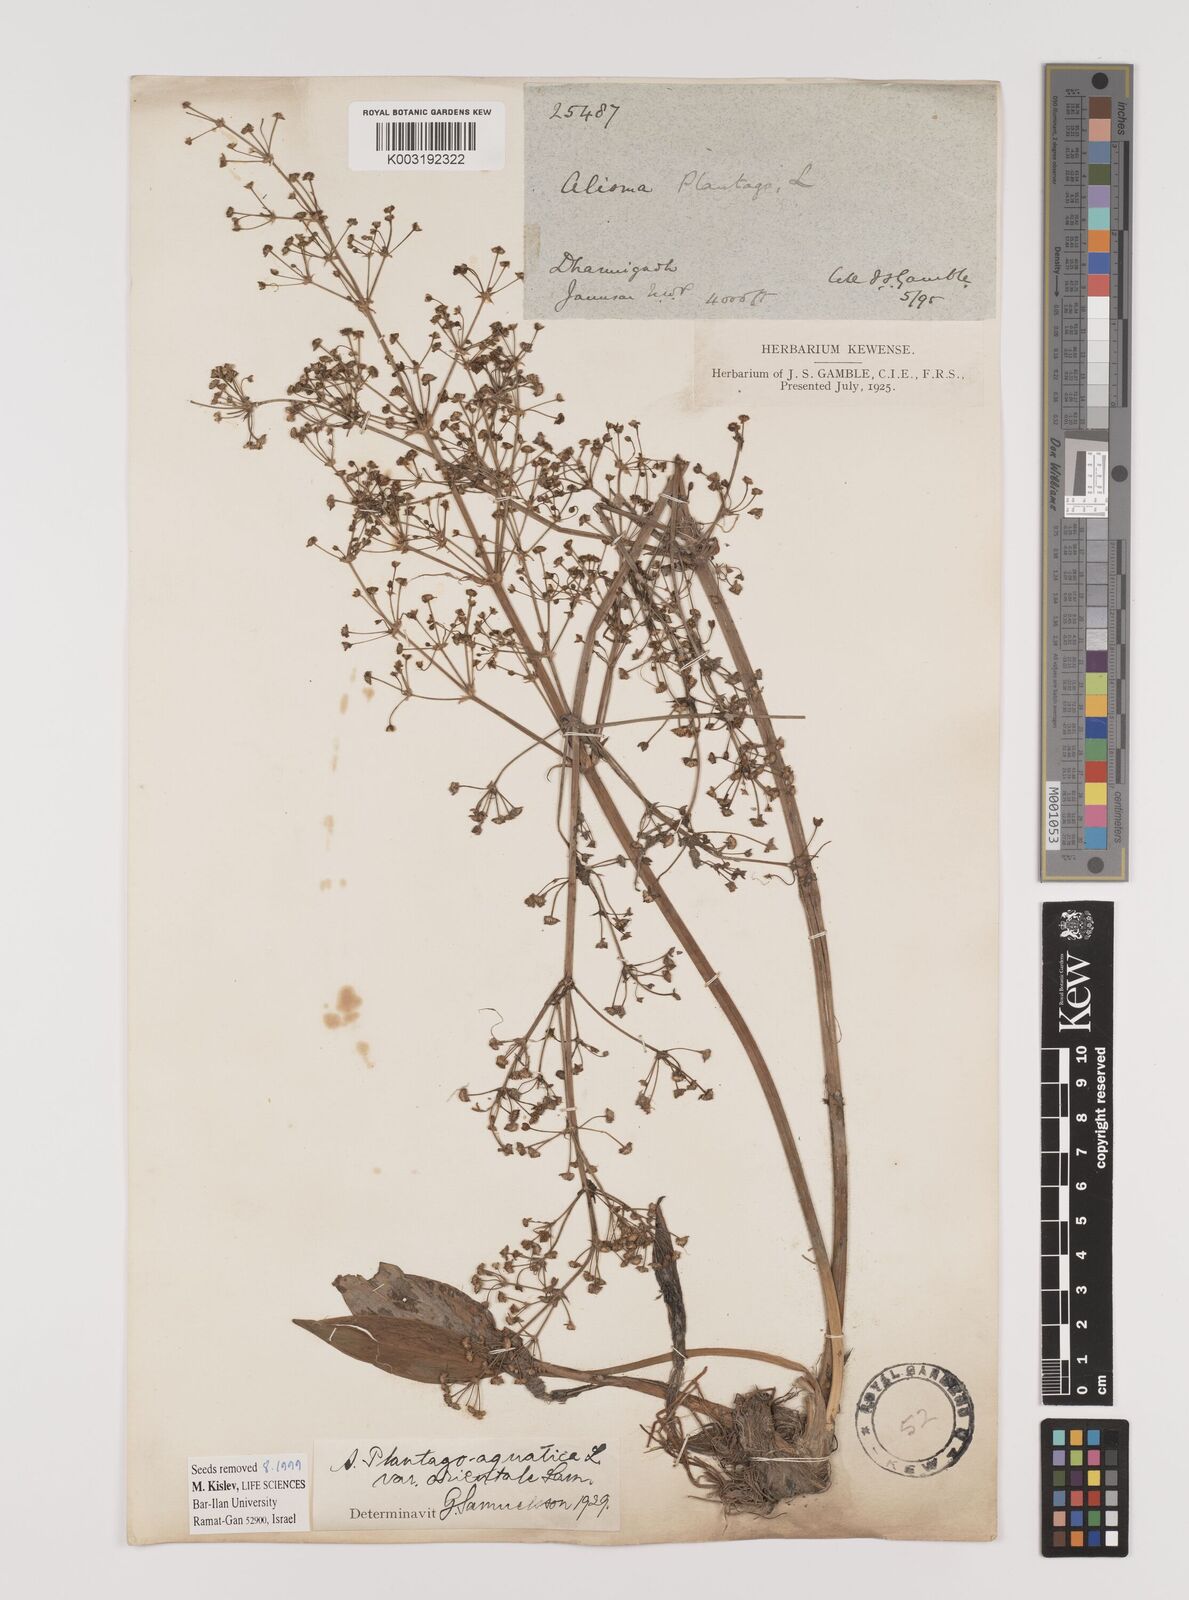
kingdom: Plantae
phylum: Tracheophyta
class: Liliopsida
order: Alismatales
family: Alismataceae
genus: Alisma
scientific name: Alisma plantago-aquatica
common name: Water-plantain
